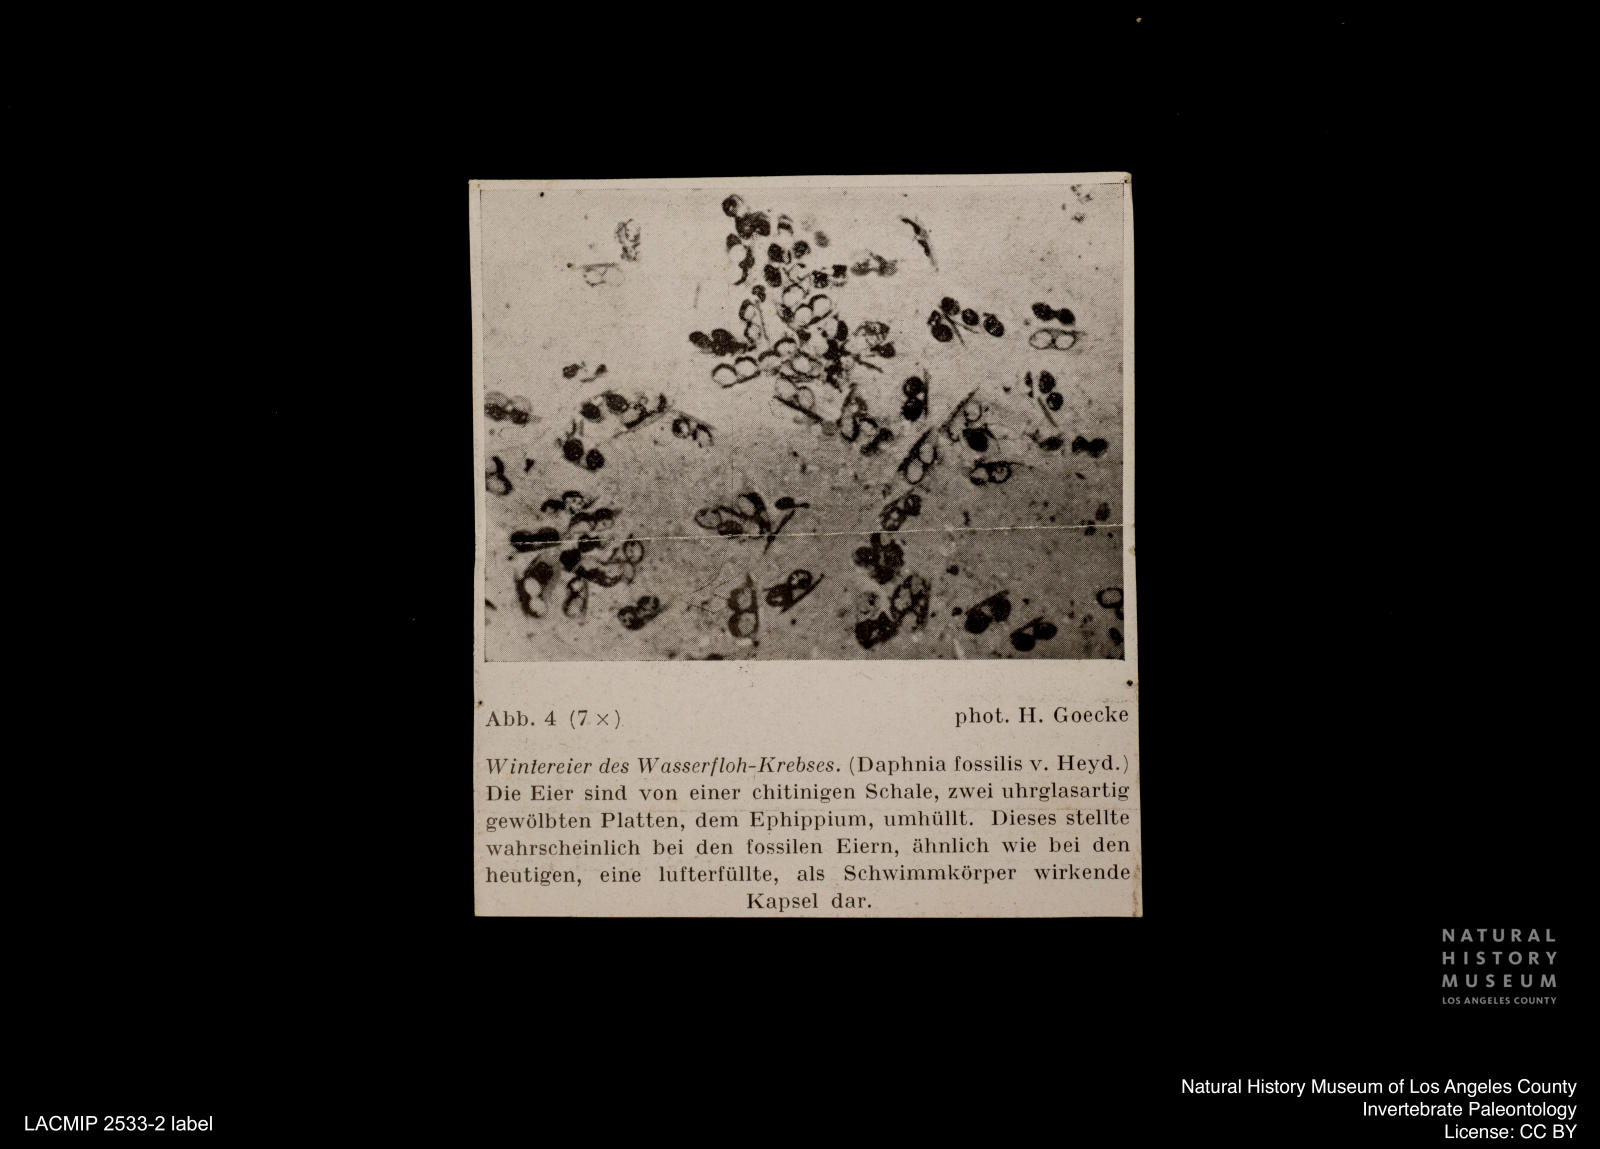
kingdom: Animalia
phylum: Arthropoda
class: Branchiopoda
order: Diplostraca
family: Daphniidae
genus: Ctenodaphnia
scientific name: Ctenodaphnia
